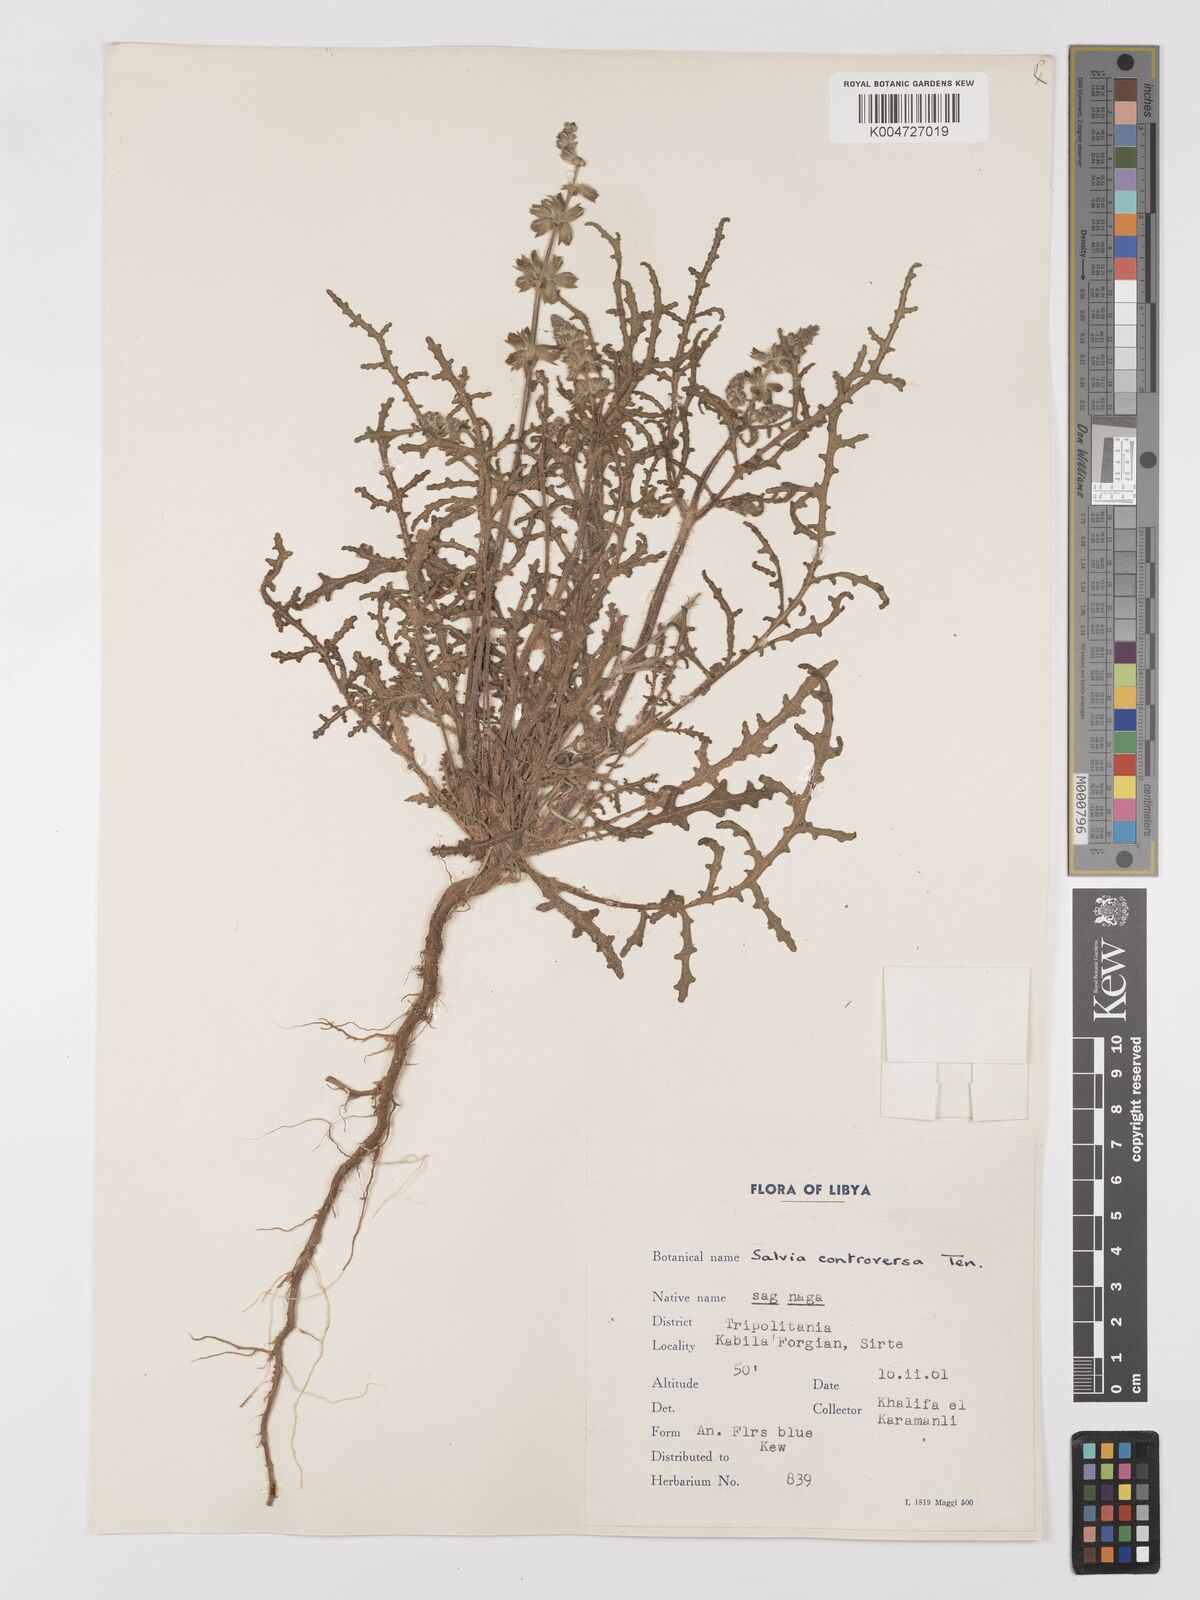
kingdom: Plantae
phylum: Tracheophyta
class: Magnoliopsida
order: Lamiales
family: Lamiaceae
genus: Salvia
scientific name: Salvia lanigera
